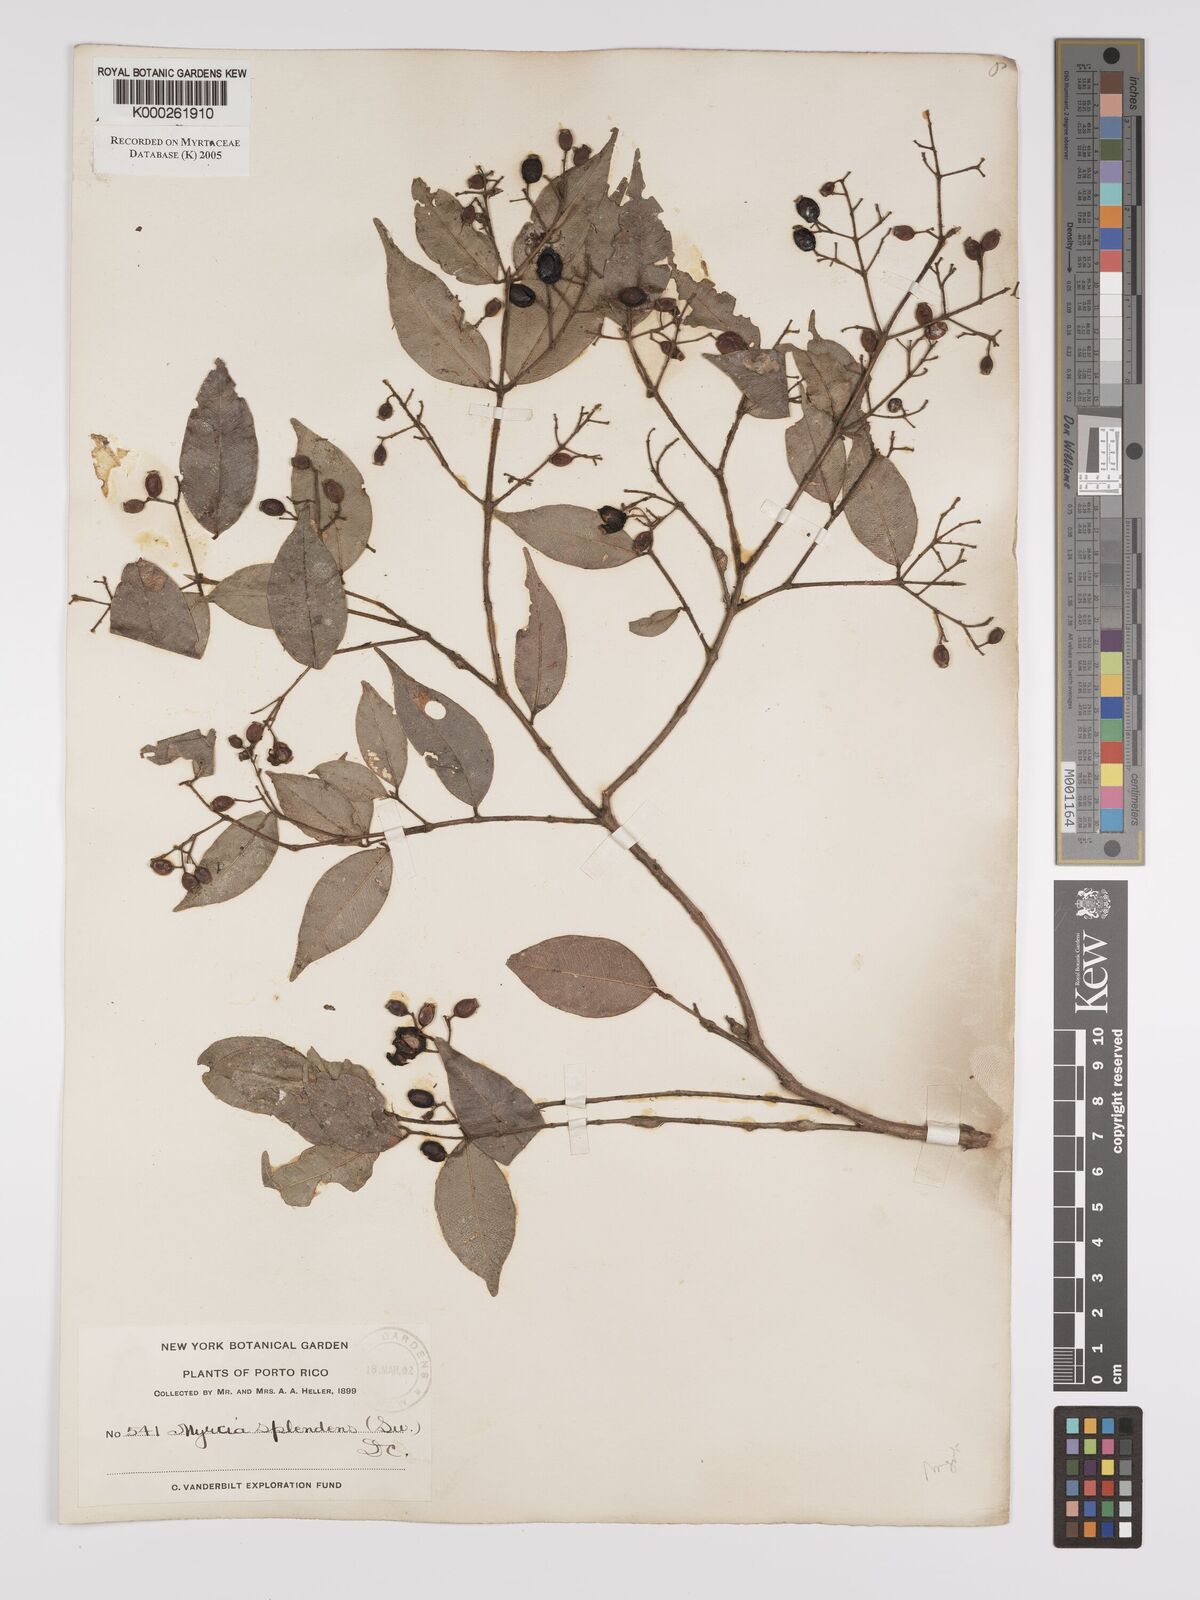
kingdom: Plantae
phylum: Tracheophyta
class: Magnoliopsida
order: Myrtales
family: Myrtaceae
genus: Myrcia
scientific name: Myrcia splendens
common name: Surinam cherry
